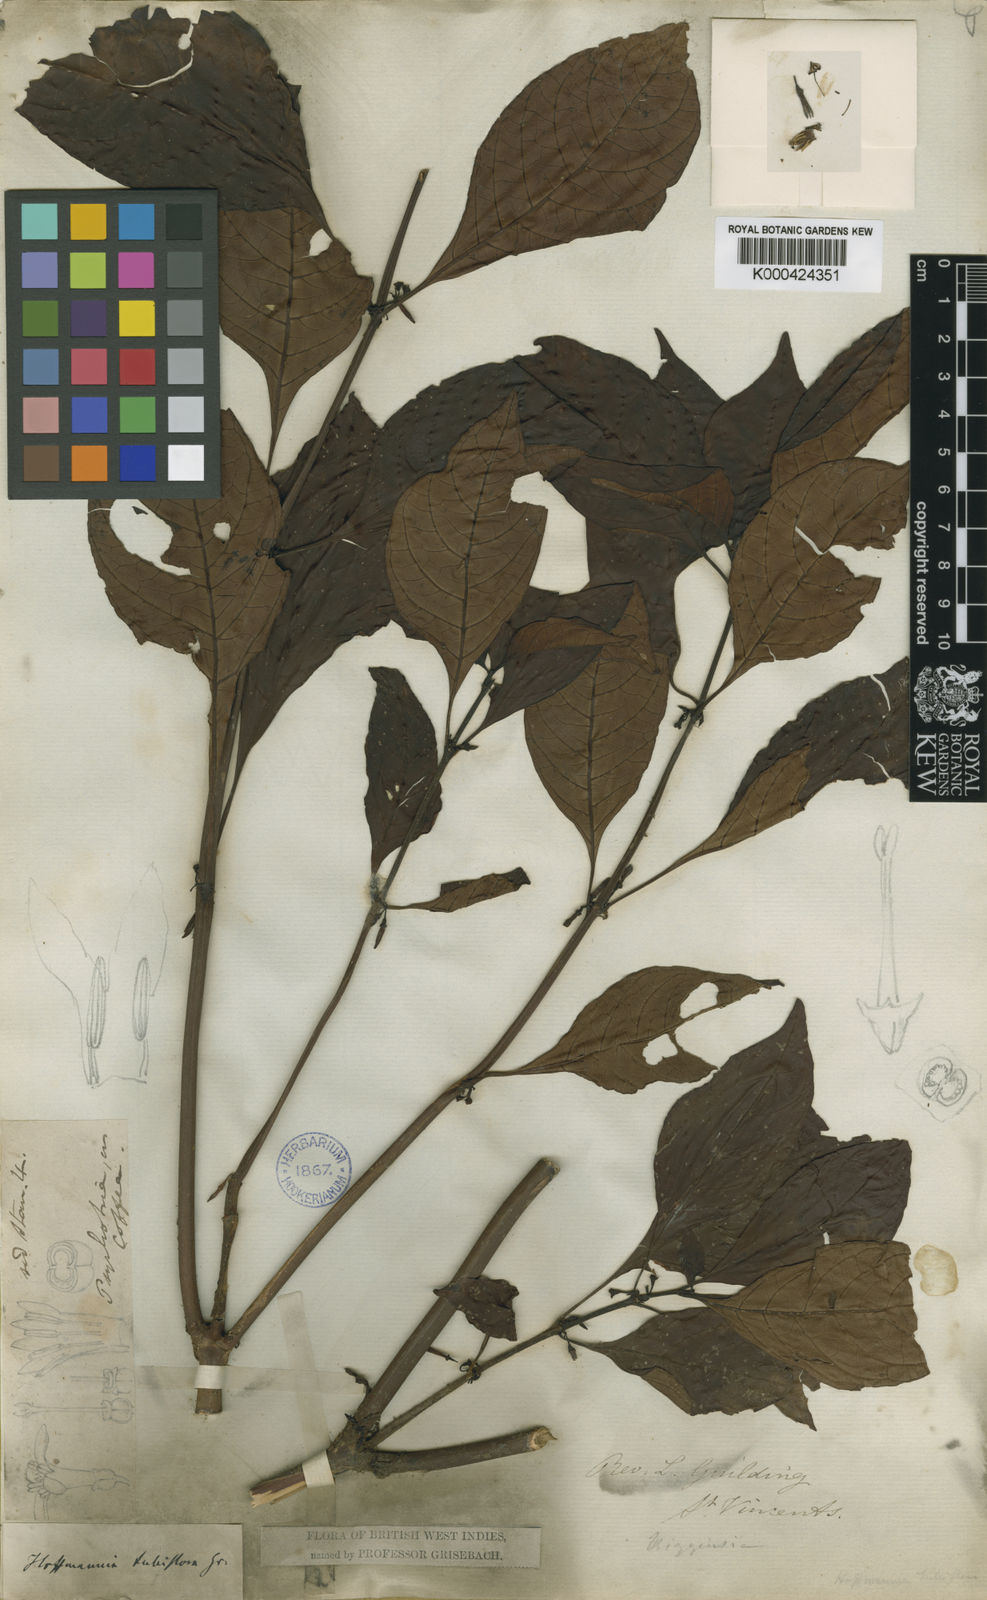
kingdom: Plantae
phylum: Tracheophyta
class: Magnoliopsida
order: Gentianales
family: Rubiaceae
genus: Hoffmannia
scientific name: Hoffmannia tubiflora
